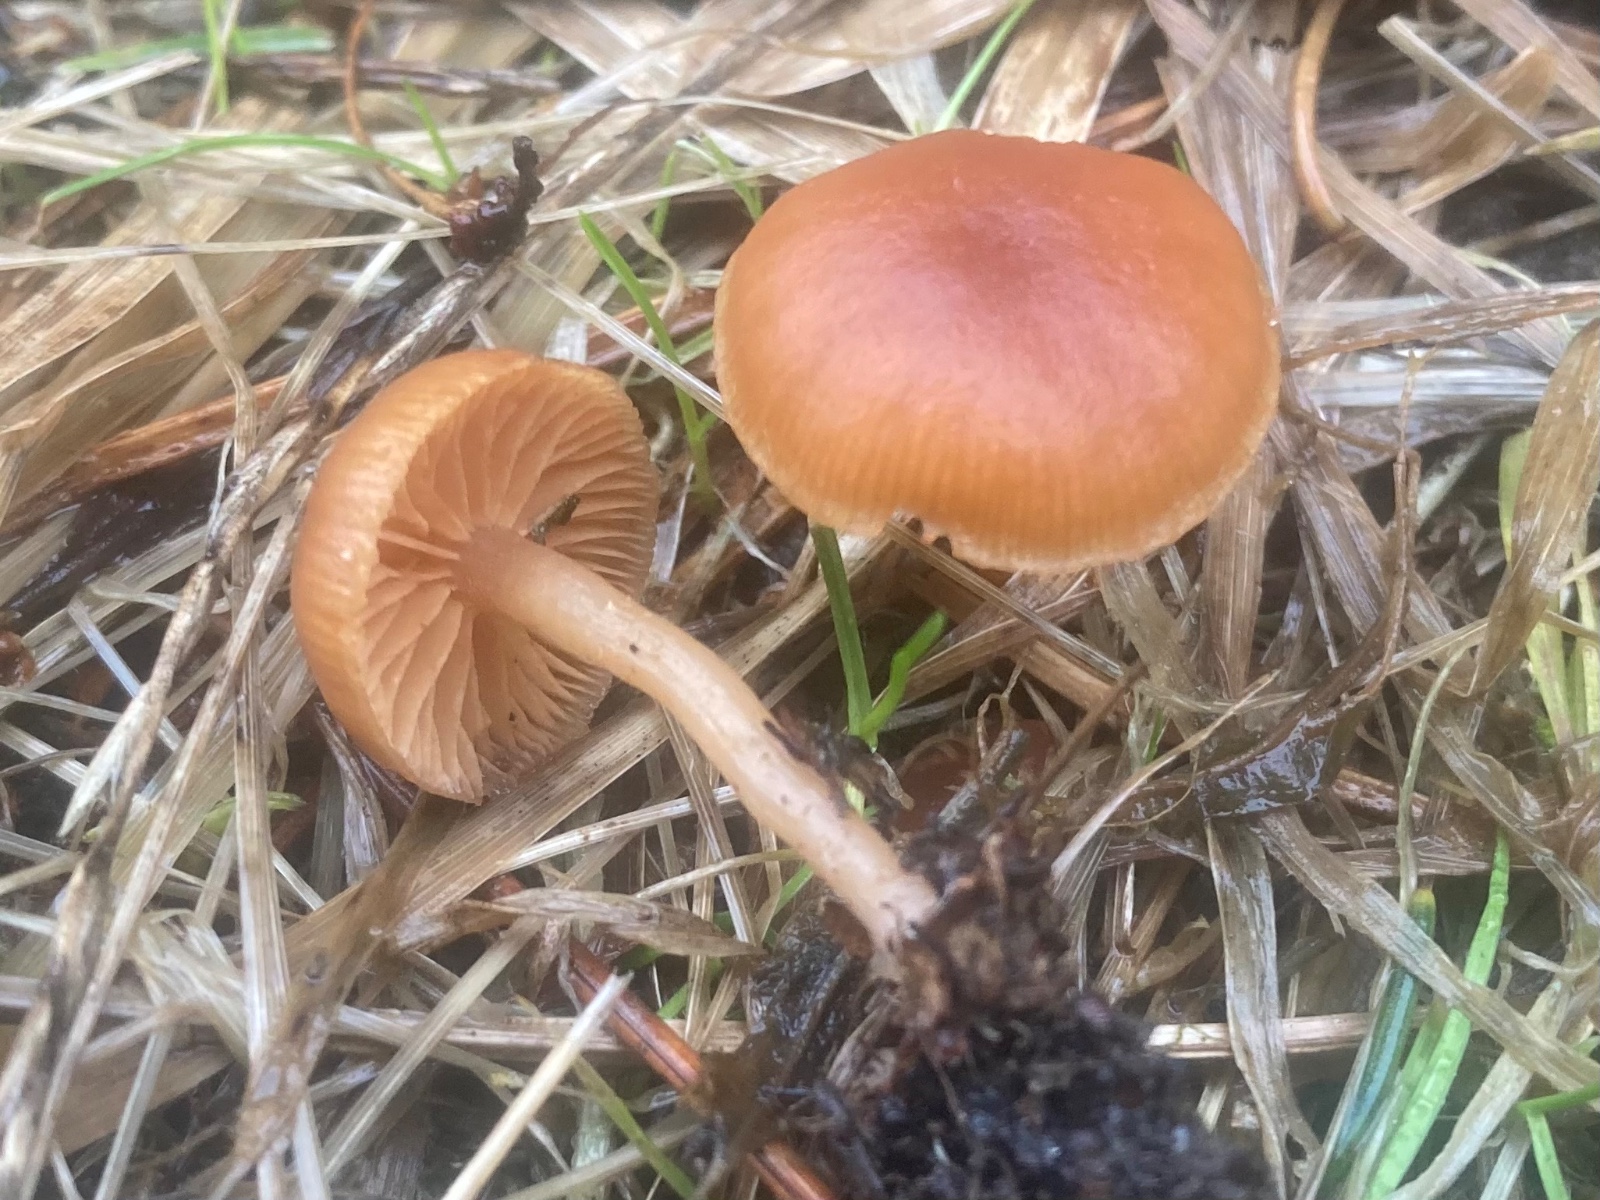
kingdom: Fungi
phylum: Basidiomycota
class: Agaricomycetes
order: Agaricales
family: Tubariaceae
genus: Tubaria
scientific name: Tubaria furfuracea
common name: kliddet fnughat
